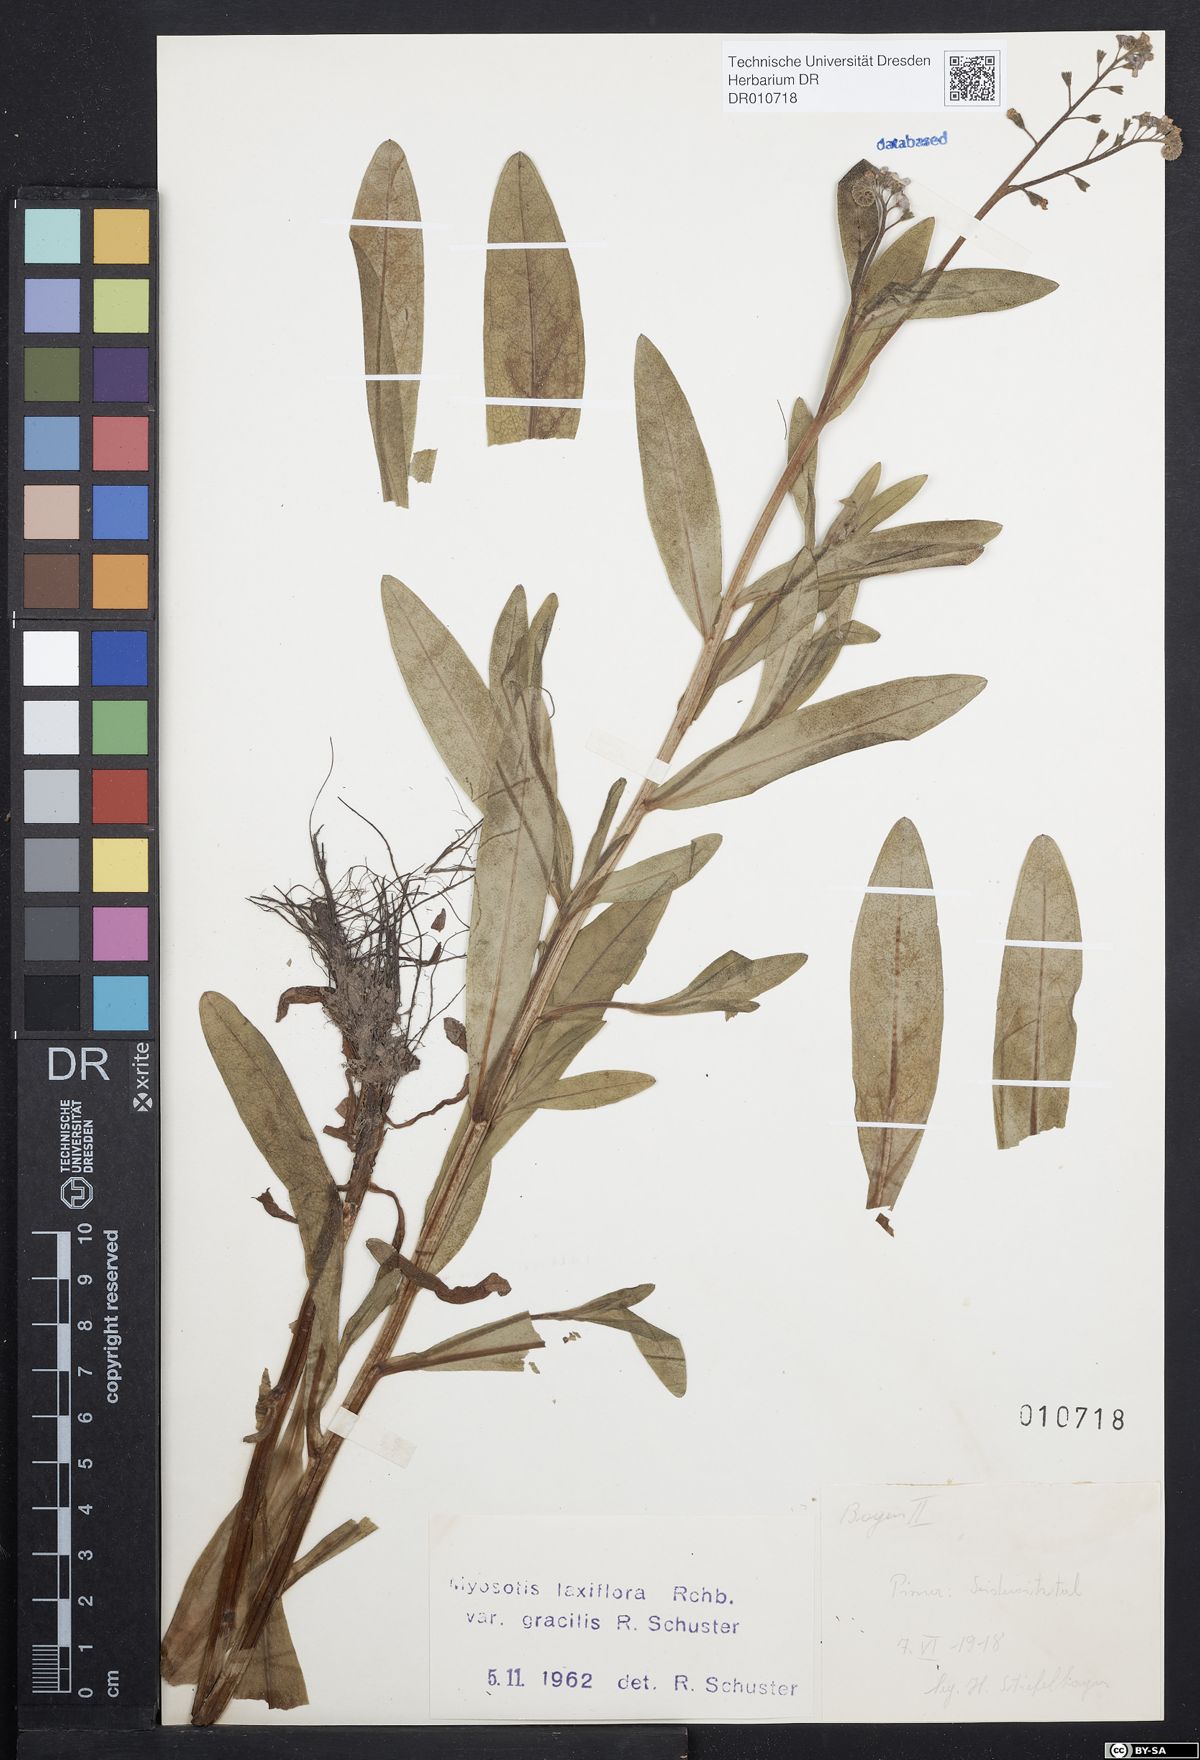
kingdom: Plantae
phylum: Tracheophyta
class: Magnoliopsida
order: Boraginales
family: Boraginaceae
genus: Myosotis
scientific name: Myosotis scorpioides
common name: Water forget-me-not
